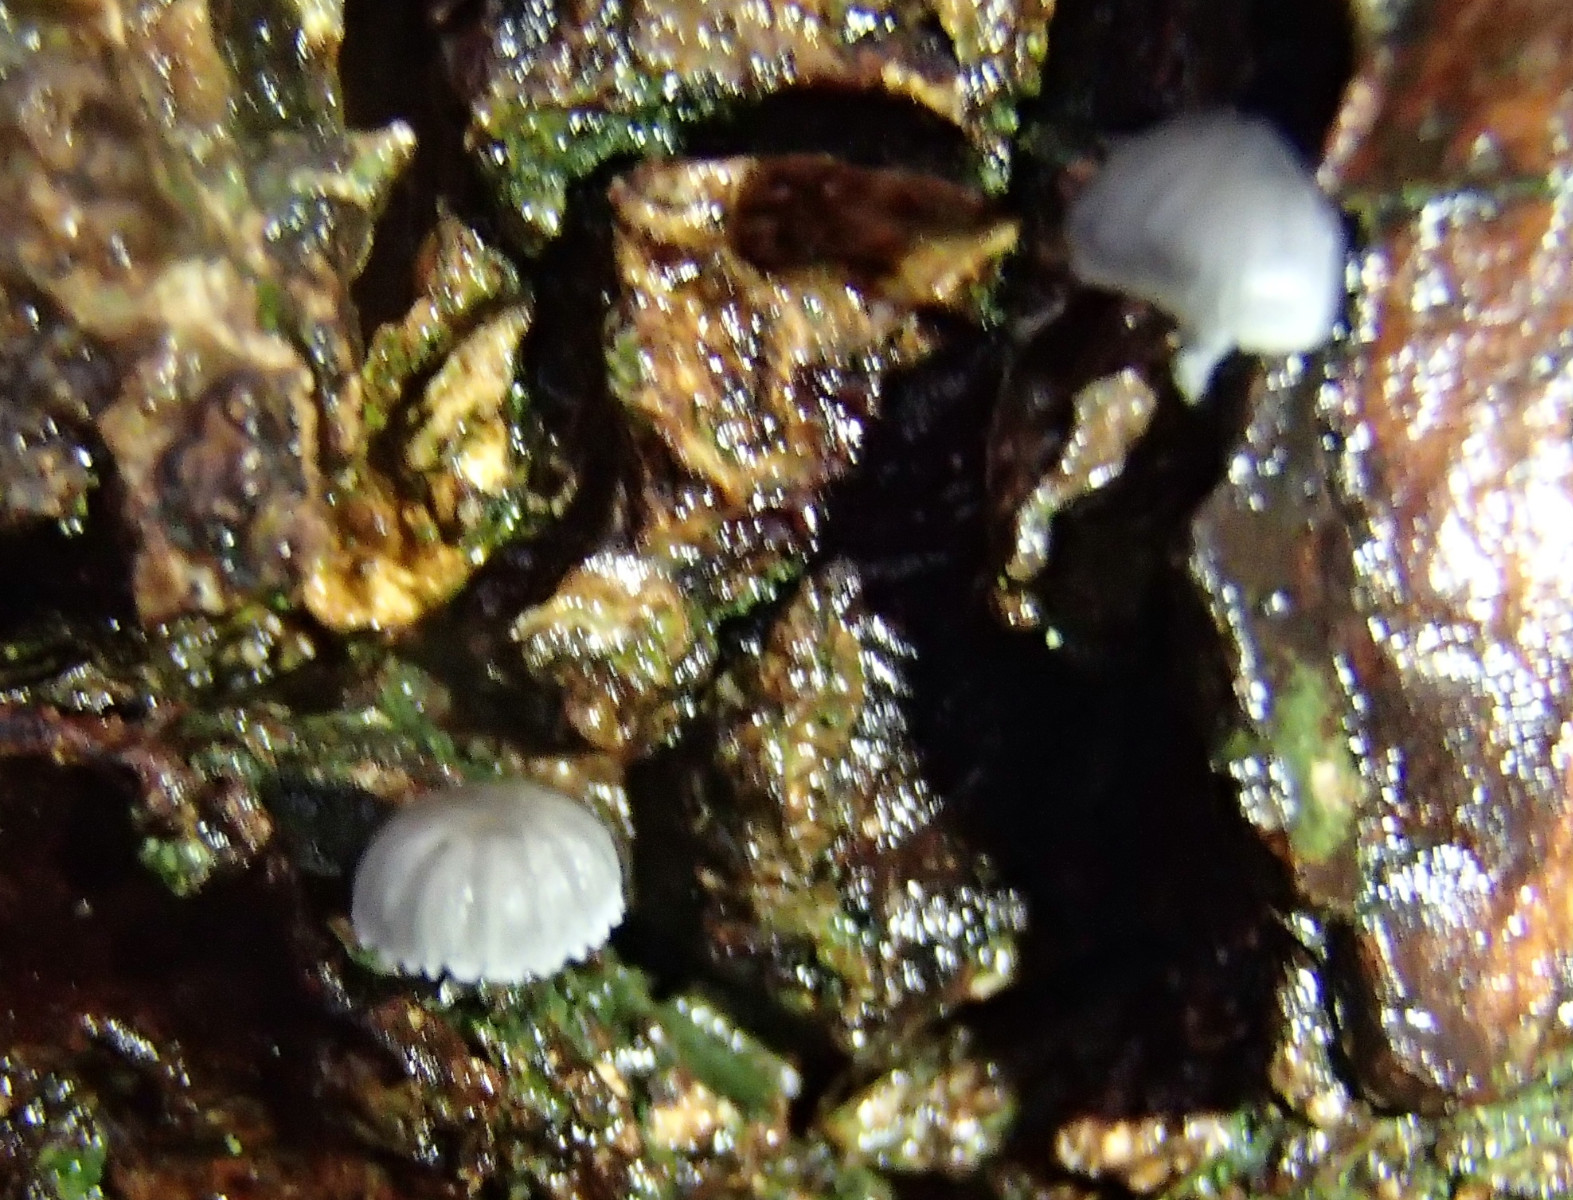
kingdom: Fungi
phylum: Basidiomycota
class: Agaricomycetes
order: Agaricales
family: Mycenaceae
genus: Mycena
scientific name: Mycena pseudocorticola
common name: gråblå bark-huesvamp
